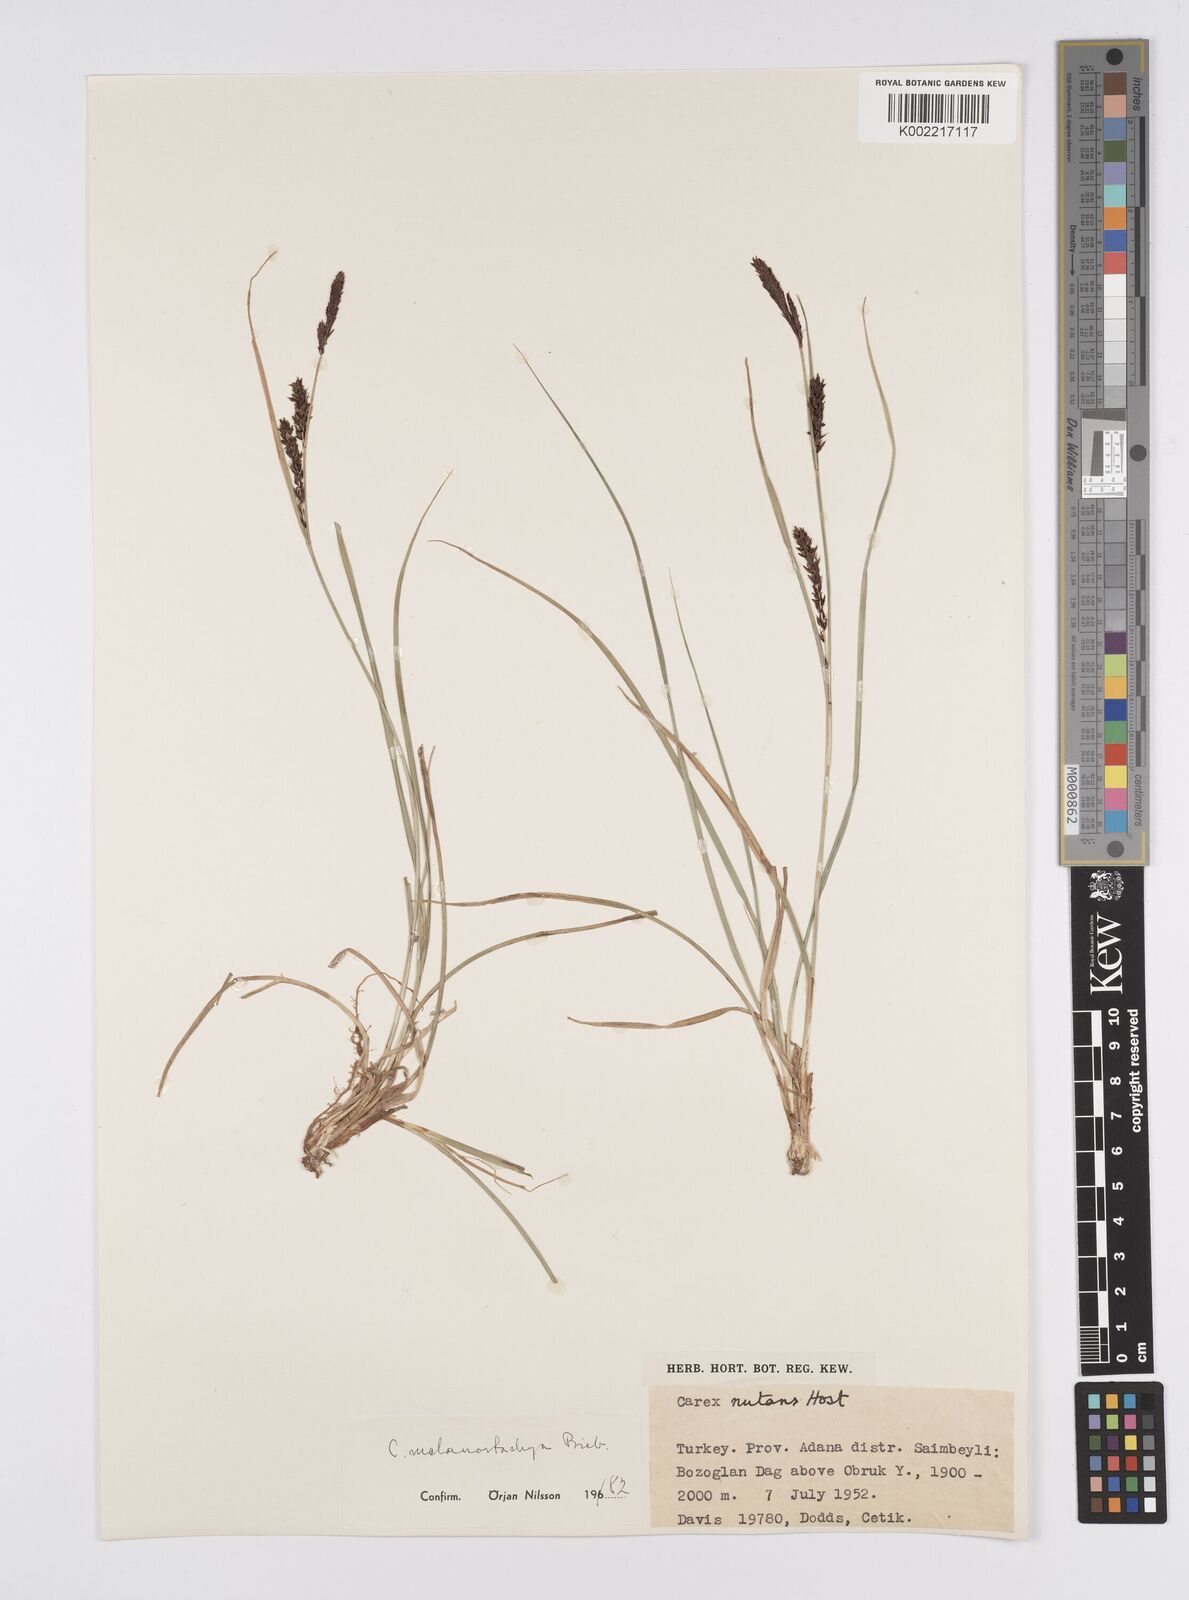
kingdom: Plantae
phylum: Tracheophyta
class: Liliopsida
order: Poales
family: Cyperaceae
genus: Carex
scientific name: Carex melanostachya
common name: Black-spiked sedge
